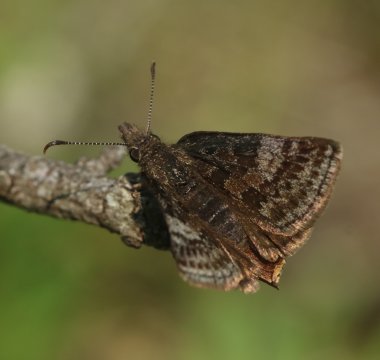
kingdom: Animalia
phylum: Arthropoda
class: Insecta
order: Lepidoptera
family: Hesperiidae
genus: Erynnis
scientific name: Erynnis icelus
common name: Dreamy Duskywing
